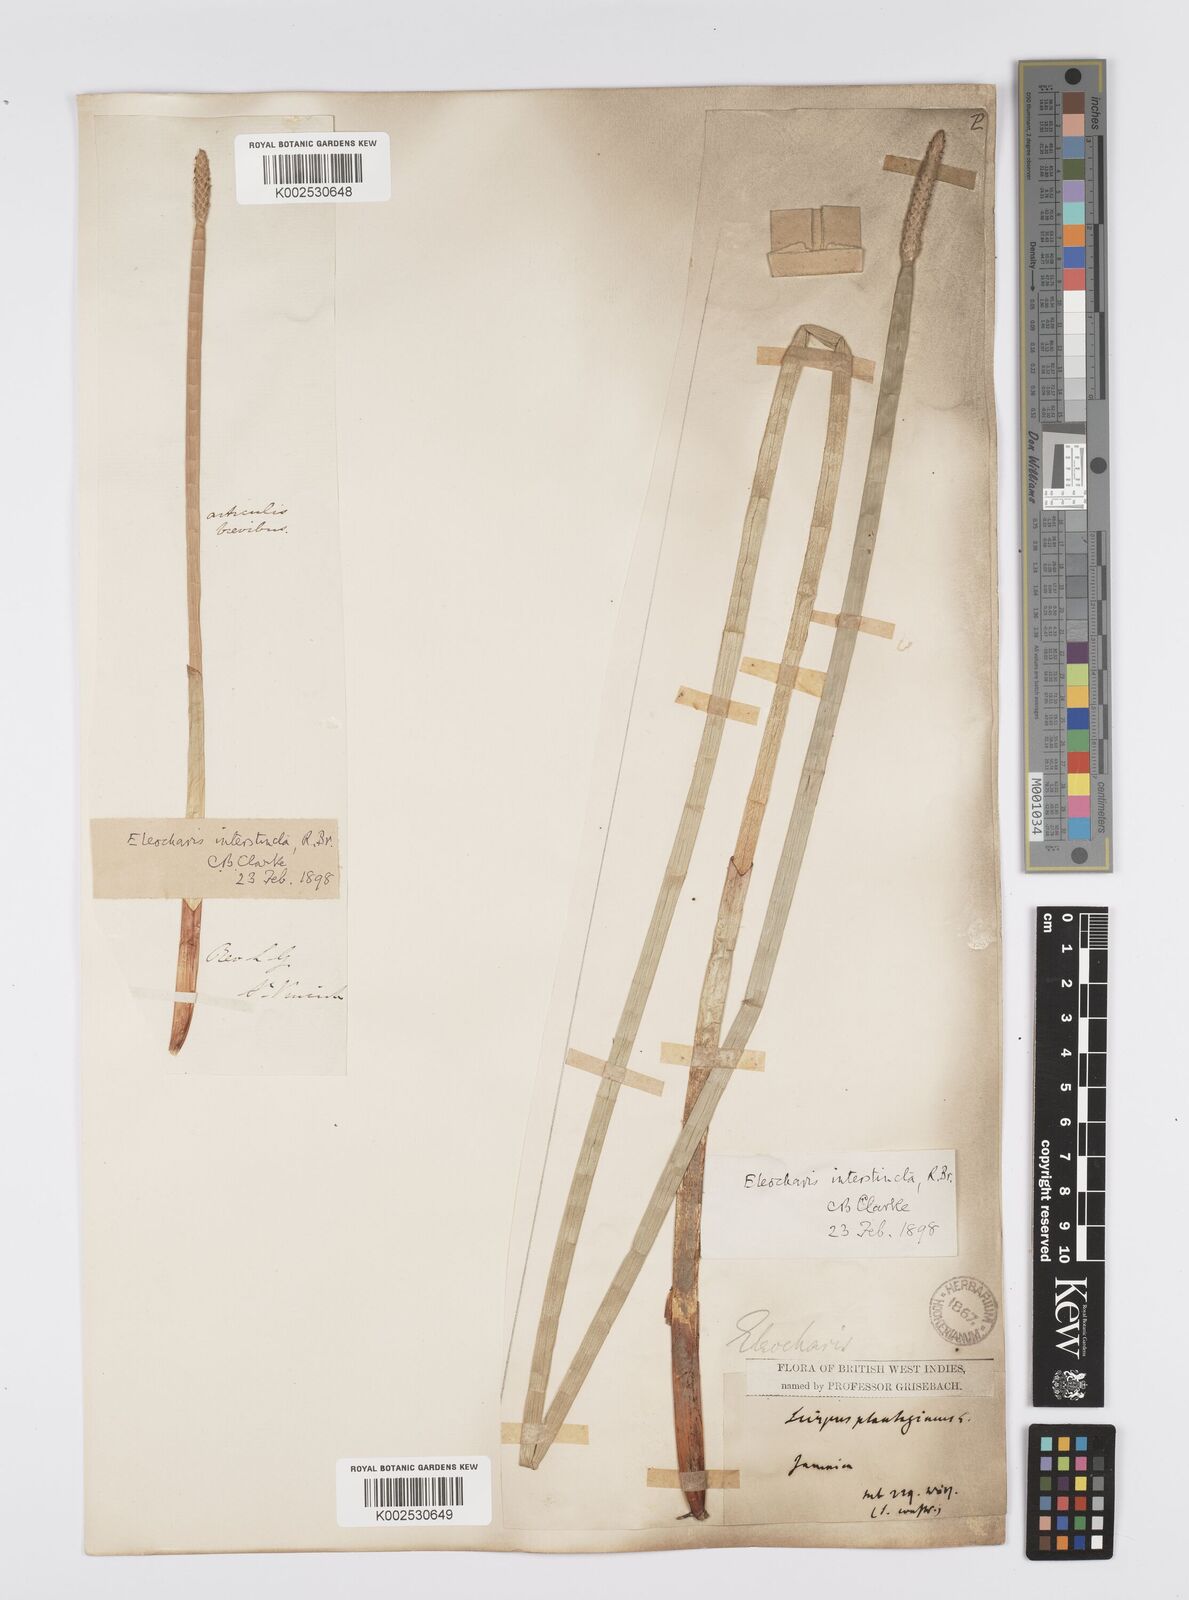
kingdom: Plantae
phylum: Tracheophyta
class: Liliopsida
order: Poales
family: Cyperaceae
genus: Eleocharis
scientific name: Eleocharis interstincta
